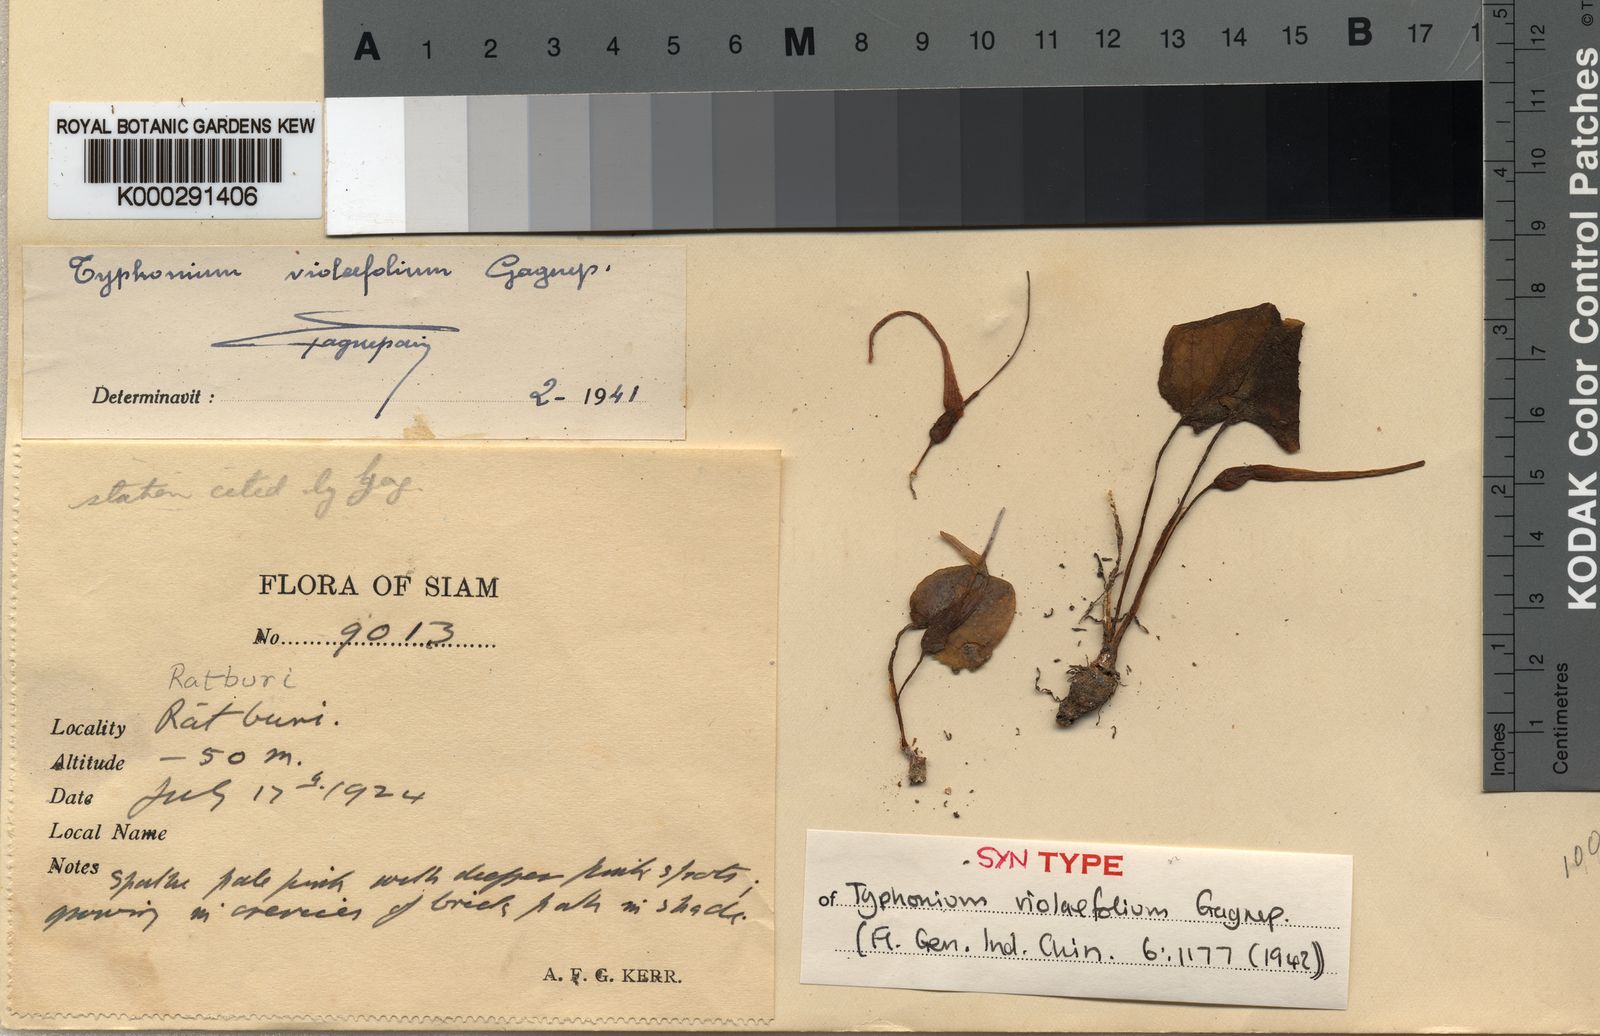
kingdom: Plantae
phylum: Tracheophyta
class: Liliopsida
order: Alismatales
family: Araceae
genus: Typhonium
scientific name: Typhonium violifolium
